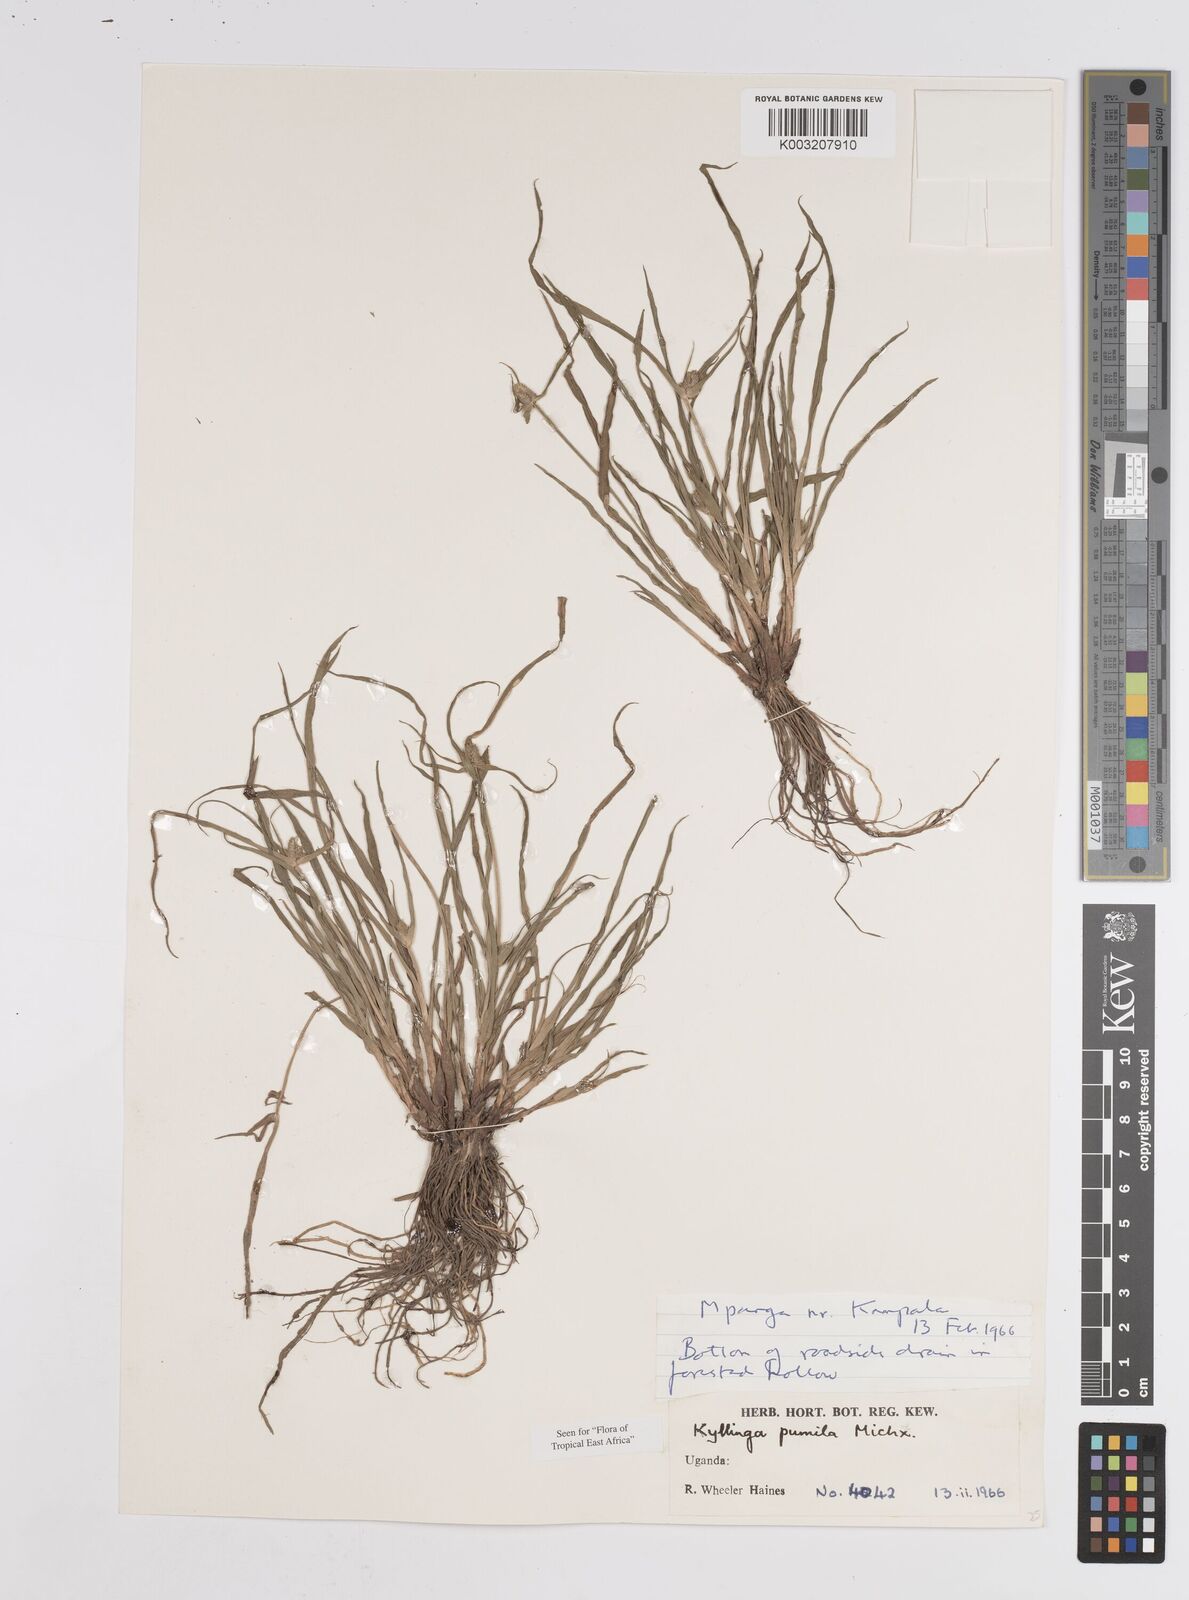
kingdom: Plantae
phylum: Tracheophyta
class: Liliopsida
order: Poales
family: Cyperaceae
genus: Cyperus
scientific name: Cyperus
